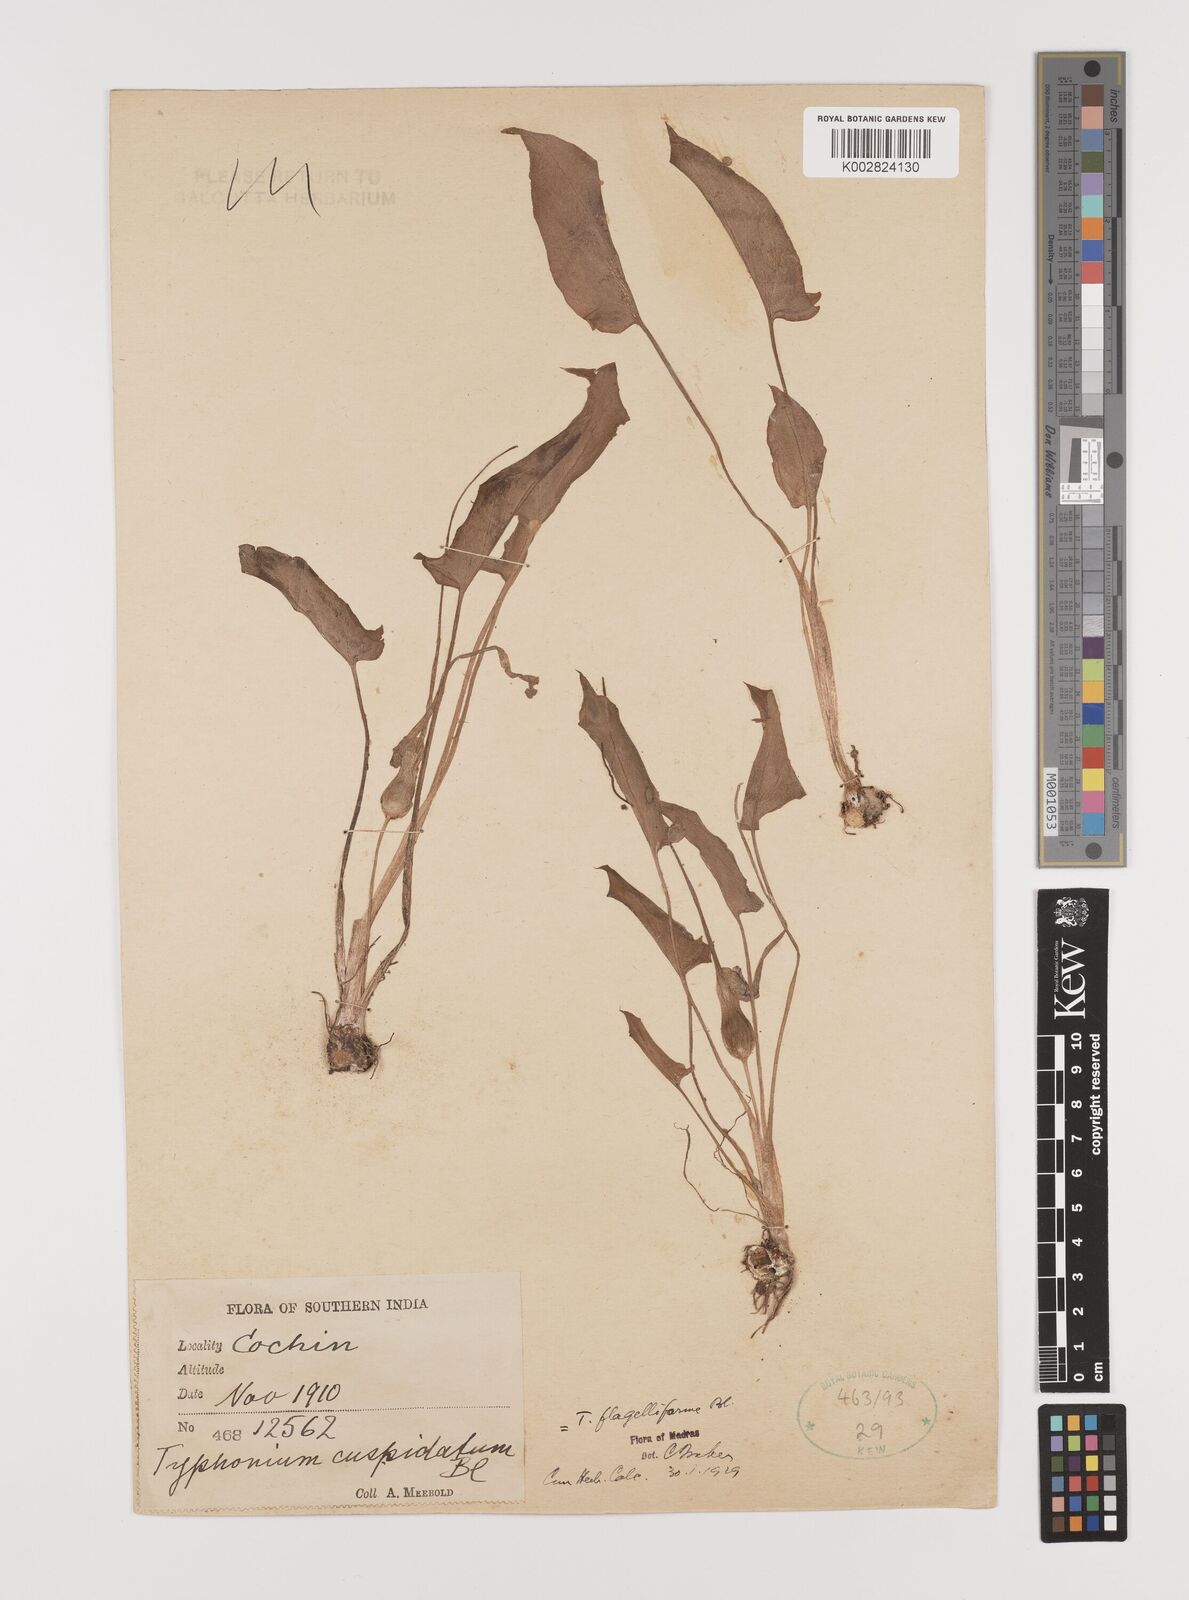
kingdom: Plantae
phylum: Tracheophyta
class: Liliopsida
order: Alismatales
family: Araceae
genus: Typhonium
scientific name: Typhonium flagelliforme
